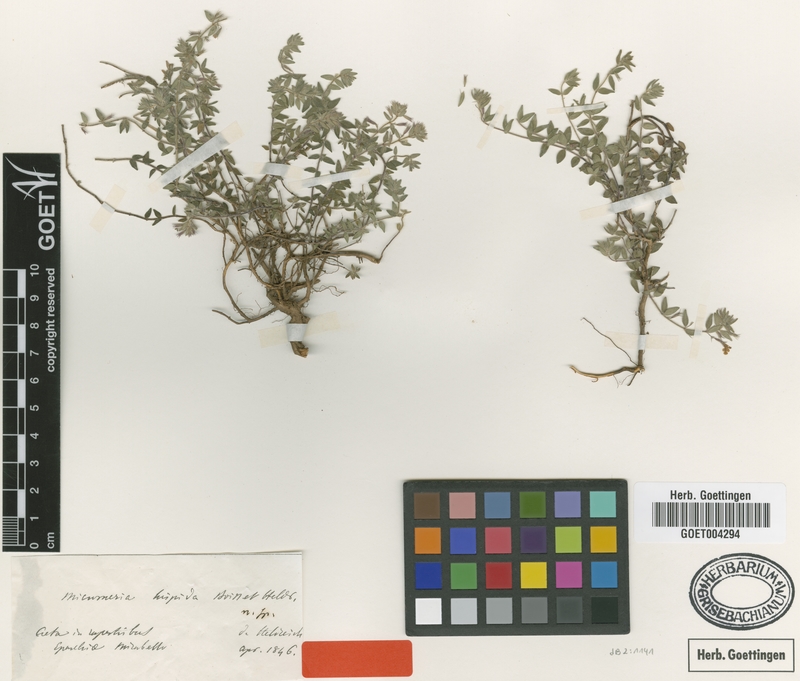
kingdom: Plantae
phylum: Tracheophyta
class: Magnoliopsida
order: Lamiales
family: Lamiaceae
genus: Micromeria
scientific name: Micromeria hispida
